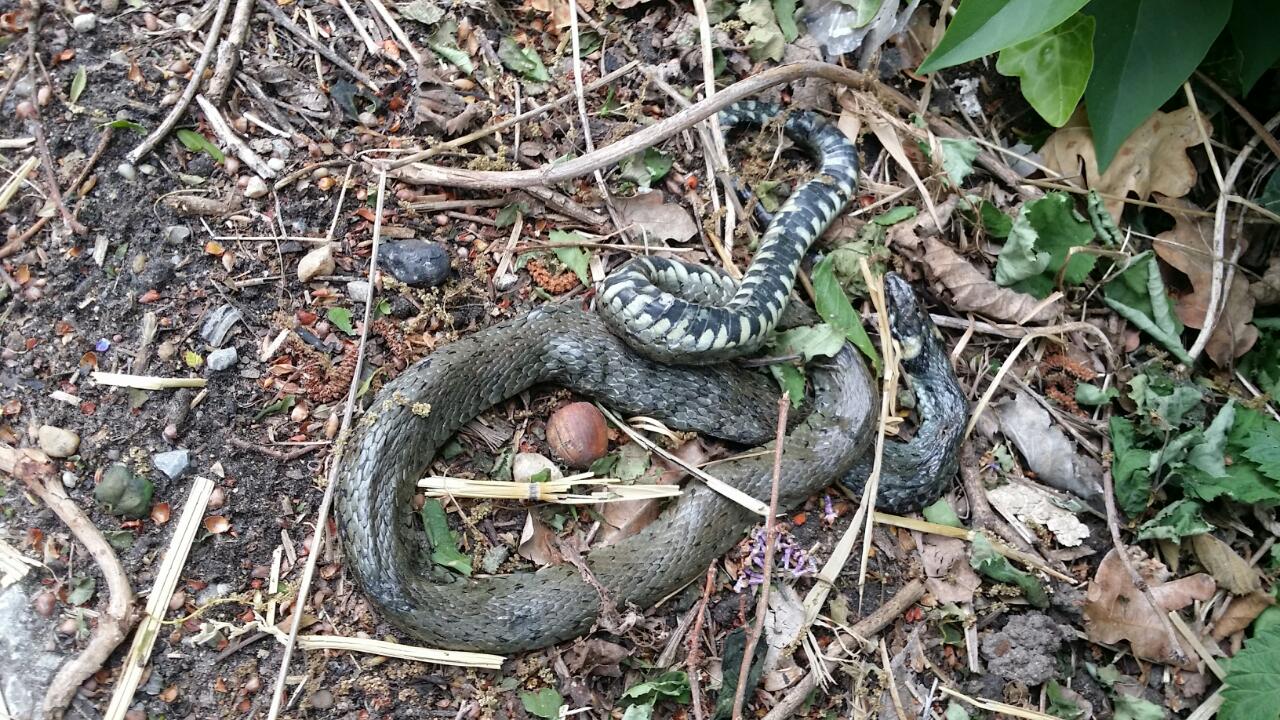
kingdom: Animalia
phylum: Chordata
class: Squamata
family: Colubridae
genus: Natrix
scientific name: Natrix natrix
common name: Grass snake
